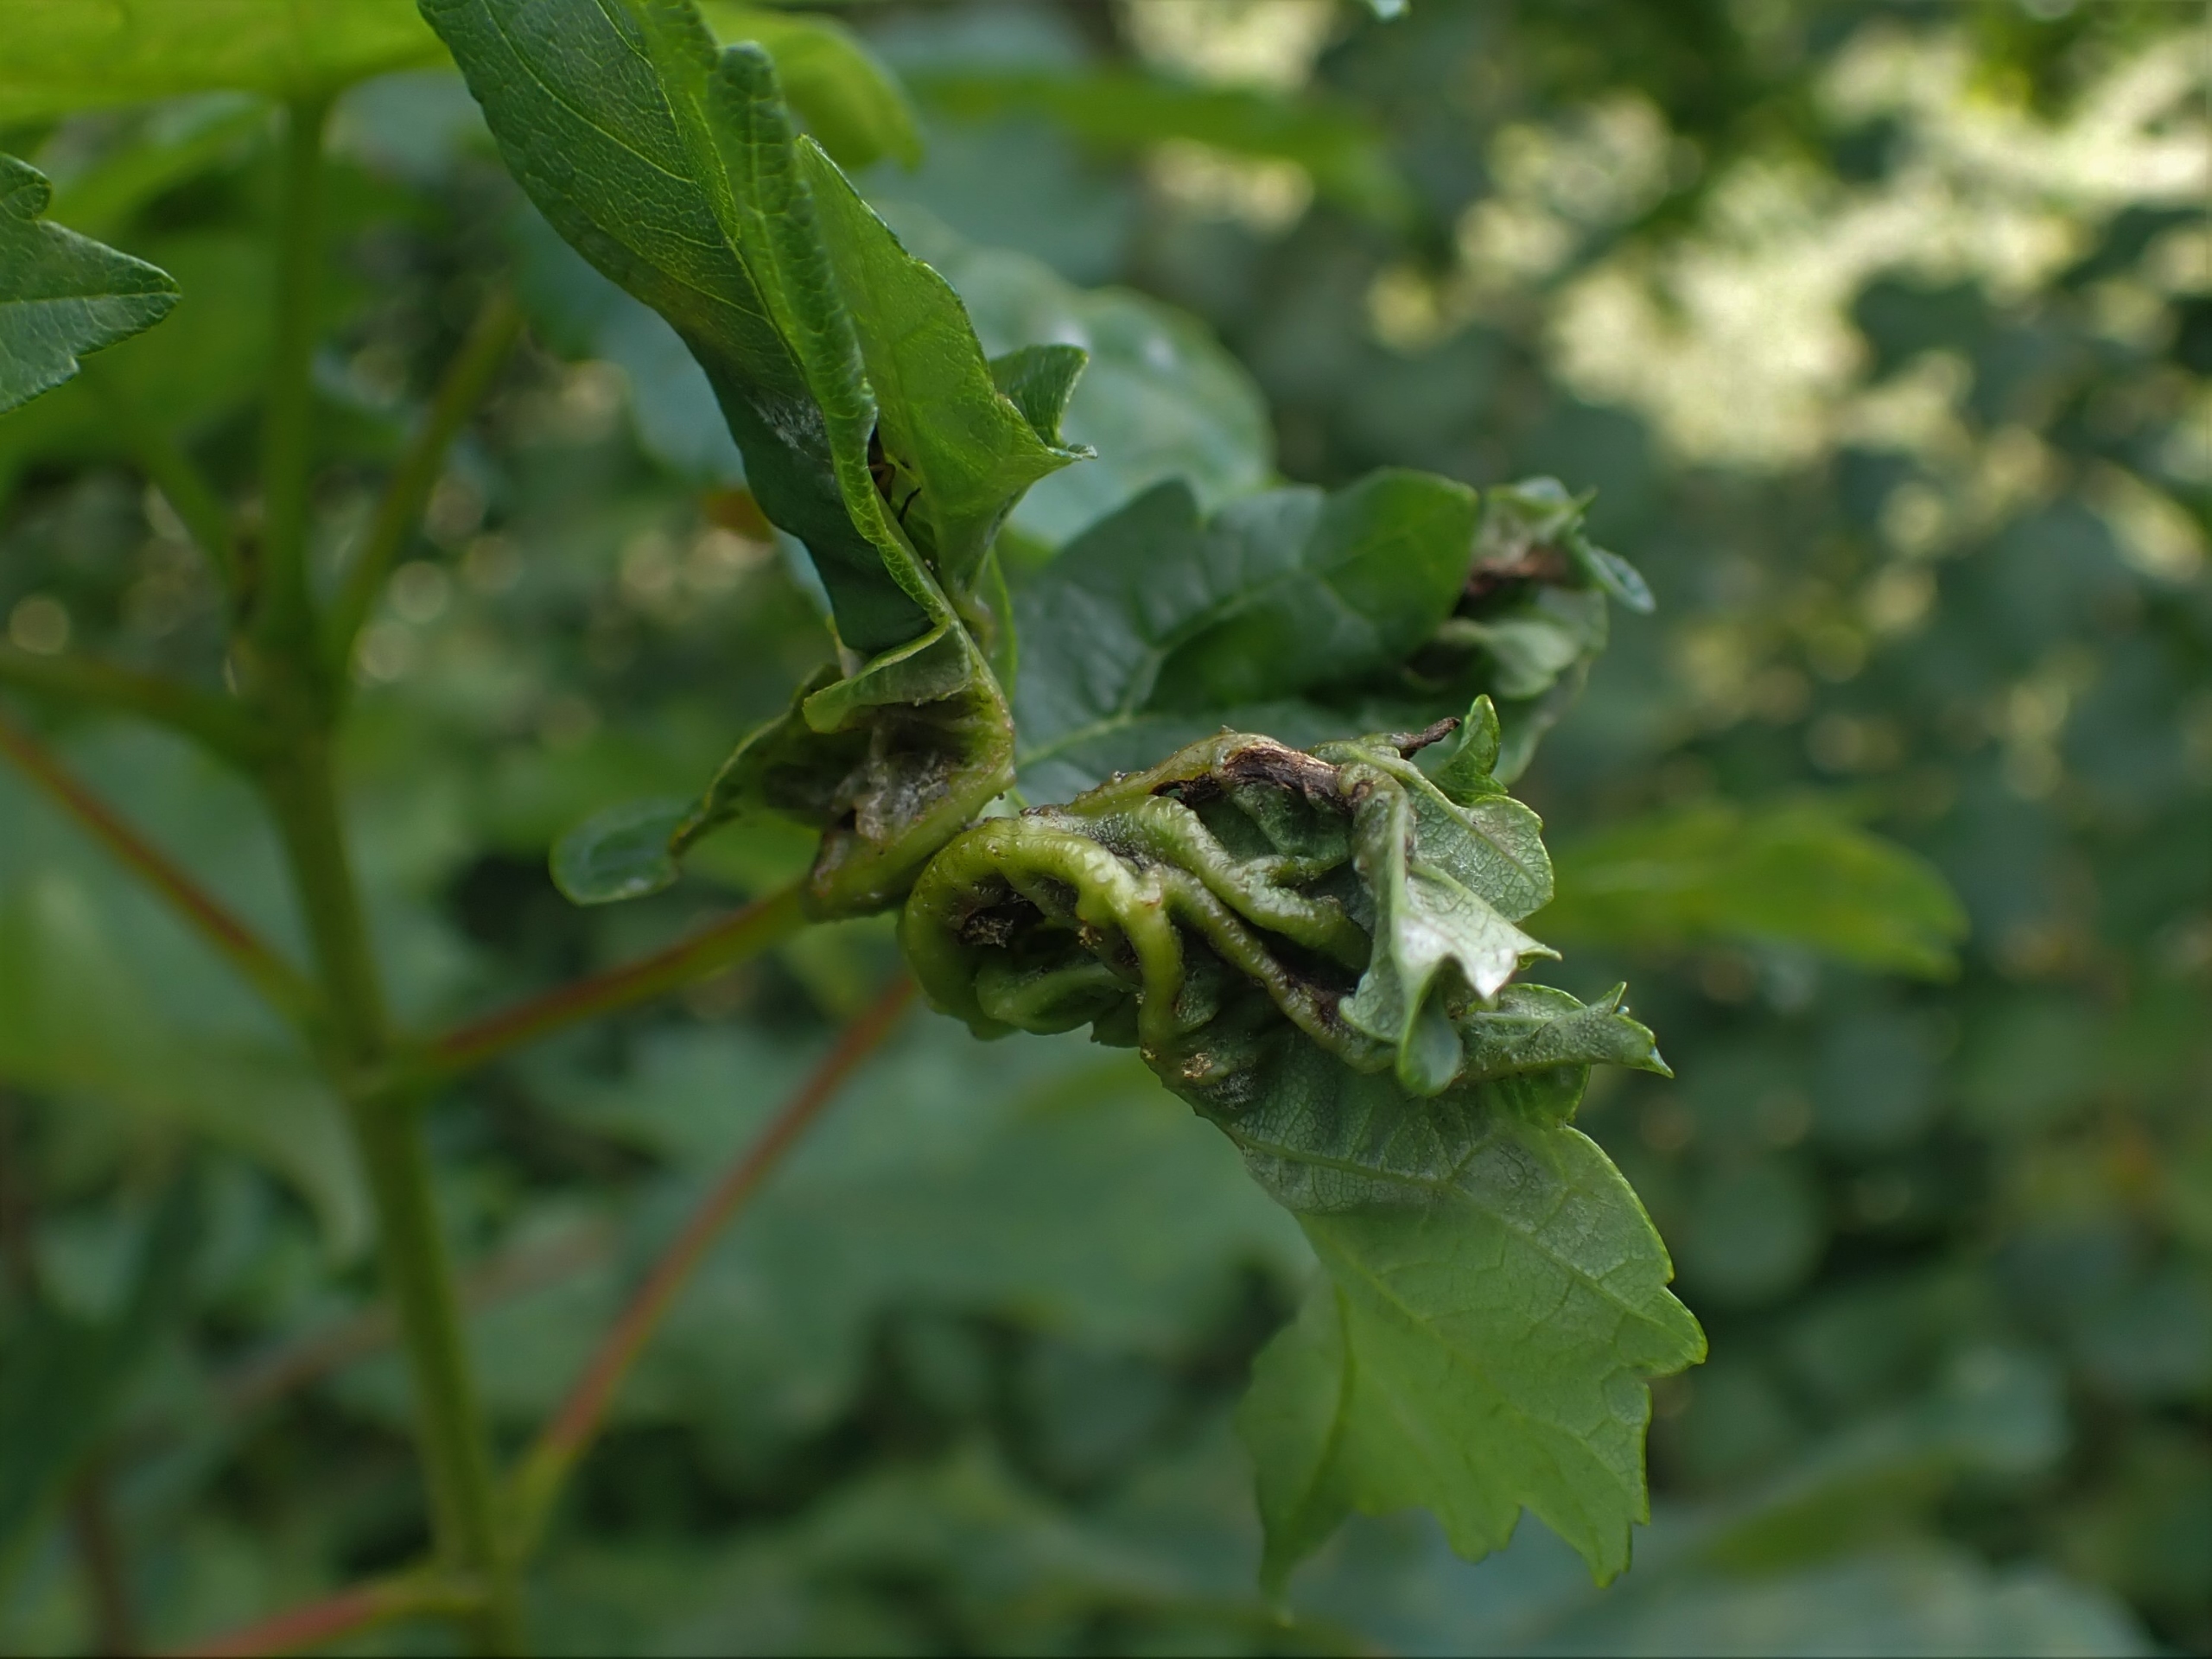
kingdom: Animalia
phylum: Arthropoda
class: Insecta
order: Diptera
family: Cecidomyiidae
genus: Dasineura
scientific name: Dasineura irregularis
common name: Ahornkrusegalmyg
